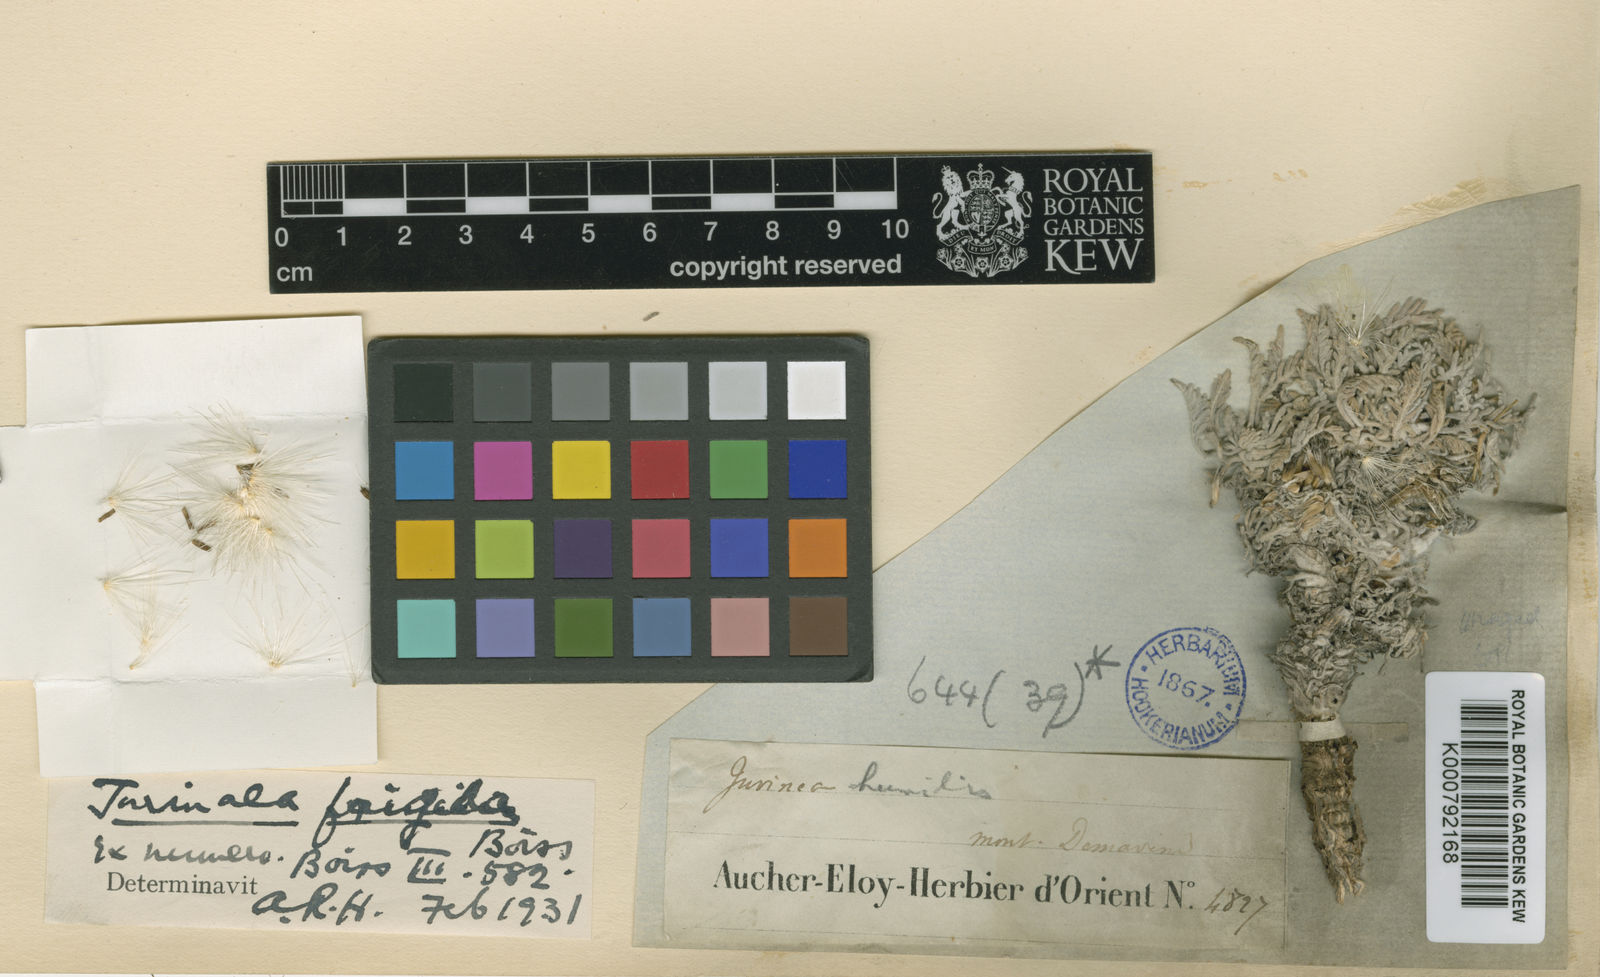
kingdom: Plantae
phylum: Tracheophyta
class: Magnoliopsida
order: Asterales
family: Asteraceae
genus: Jurinea
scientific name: Jurinea frigida
